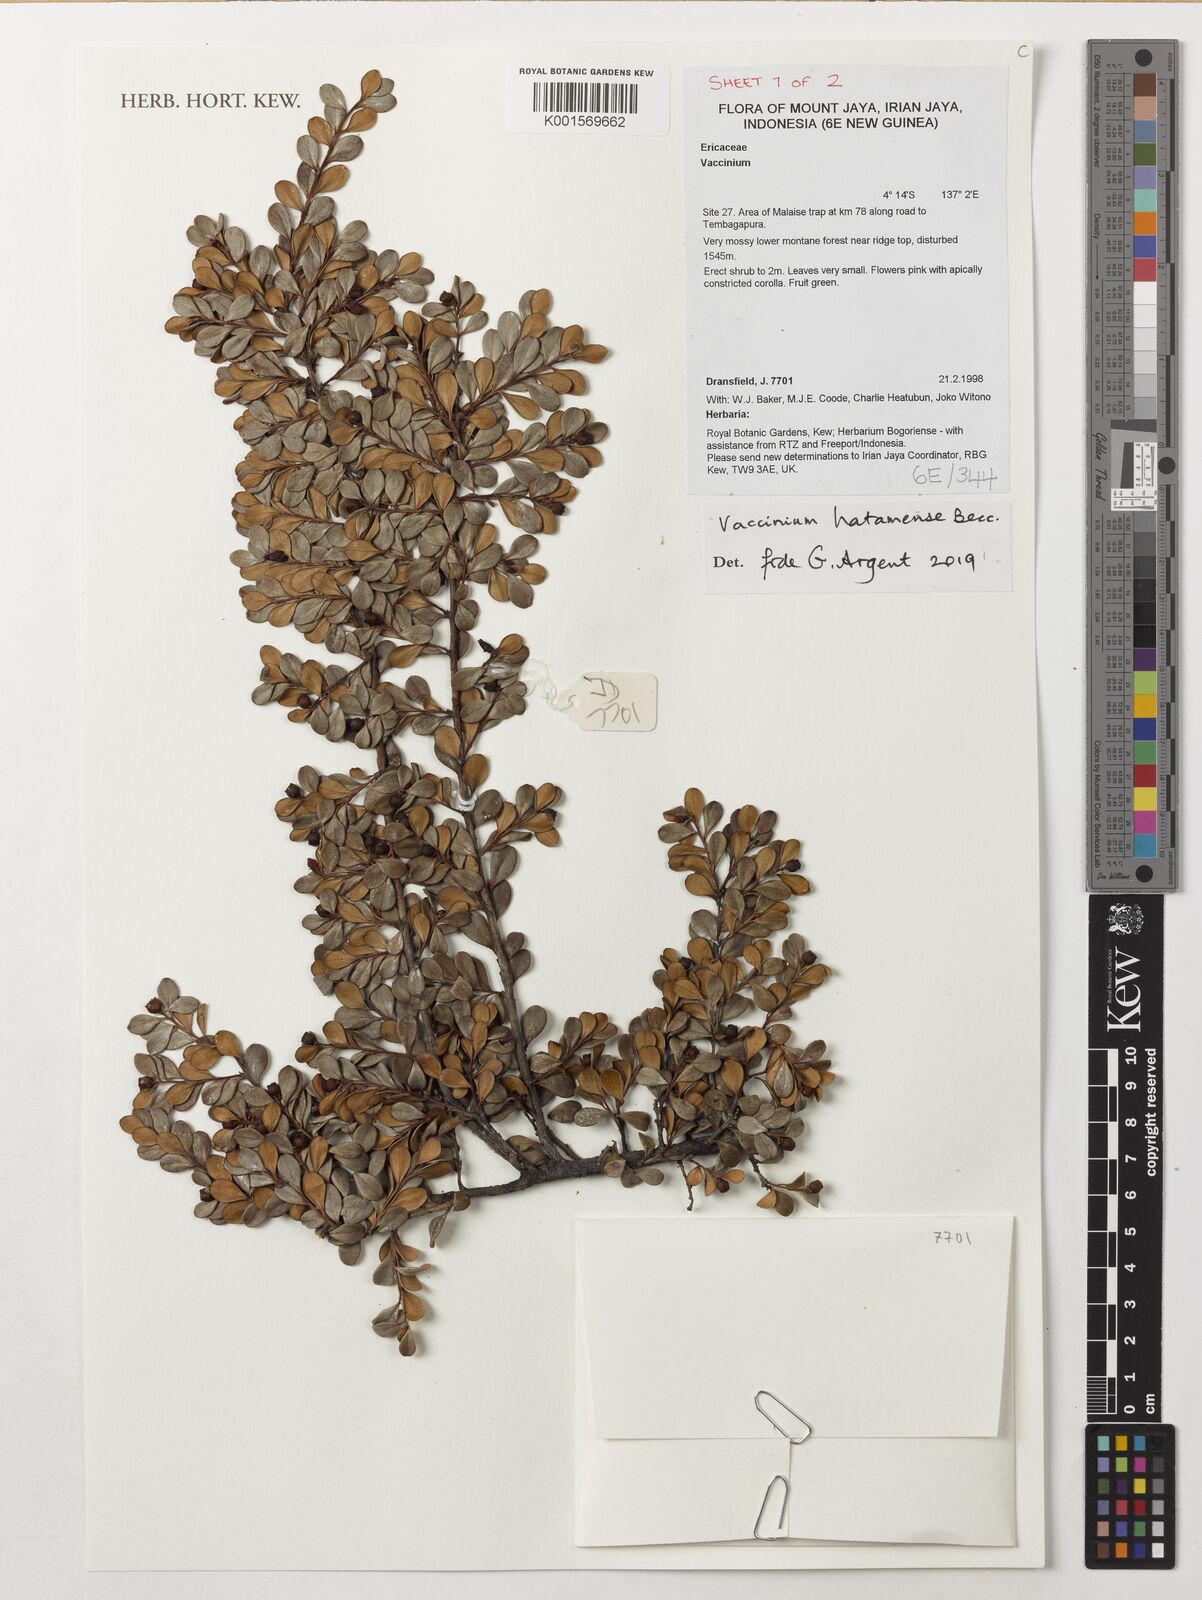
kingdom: Plantae
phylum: Tracheophyta
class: Magnoliopsida
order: Ericales
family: Ericaceae
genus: Vaccinium
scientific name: Vaccinium hatamense
